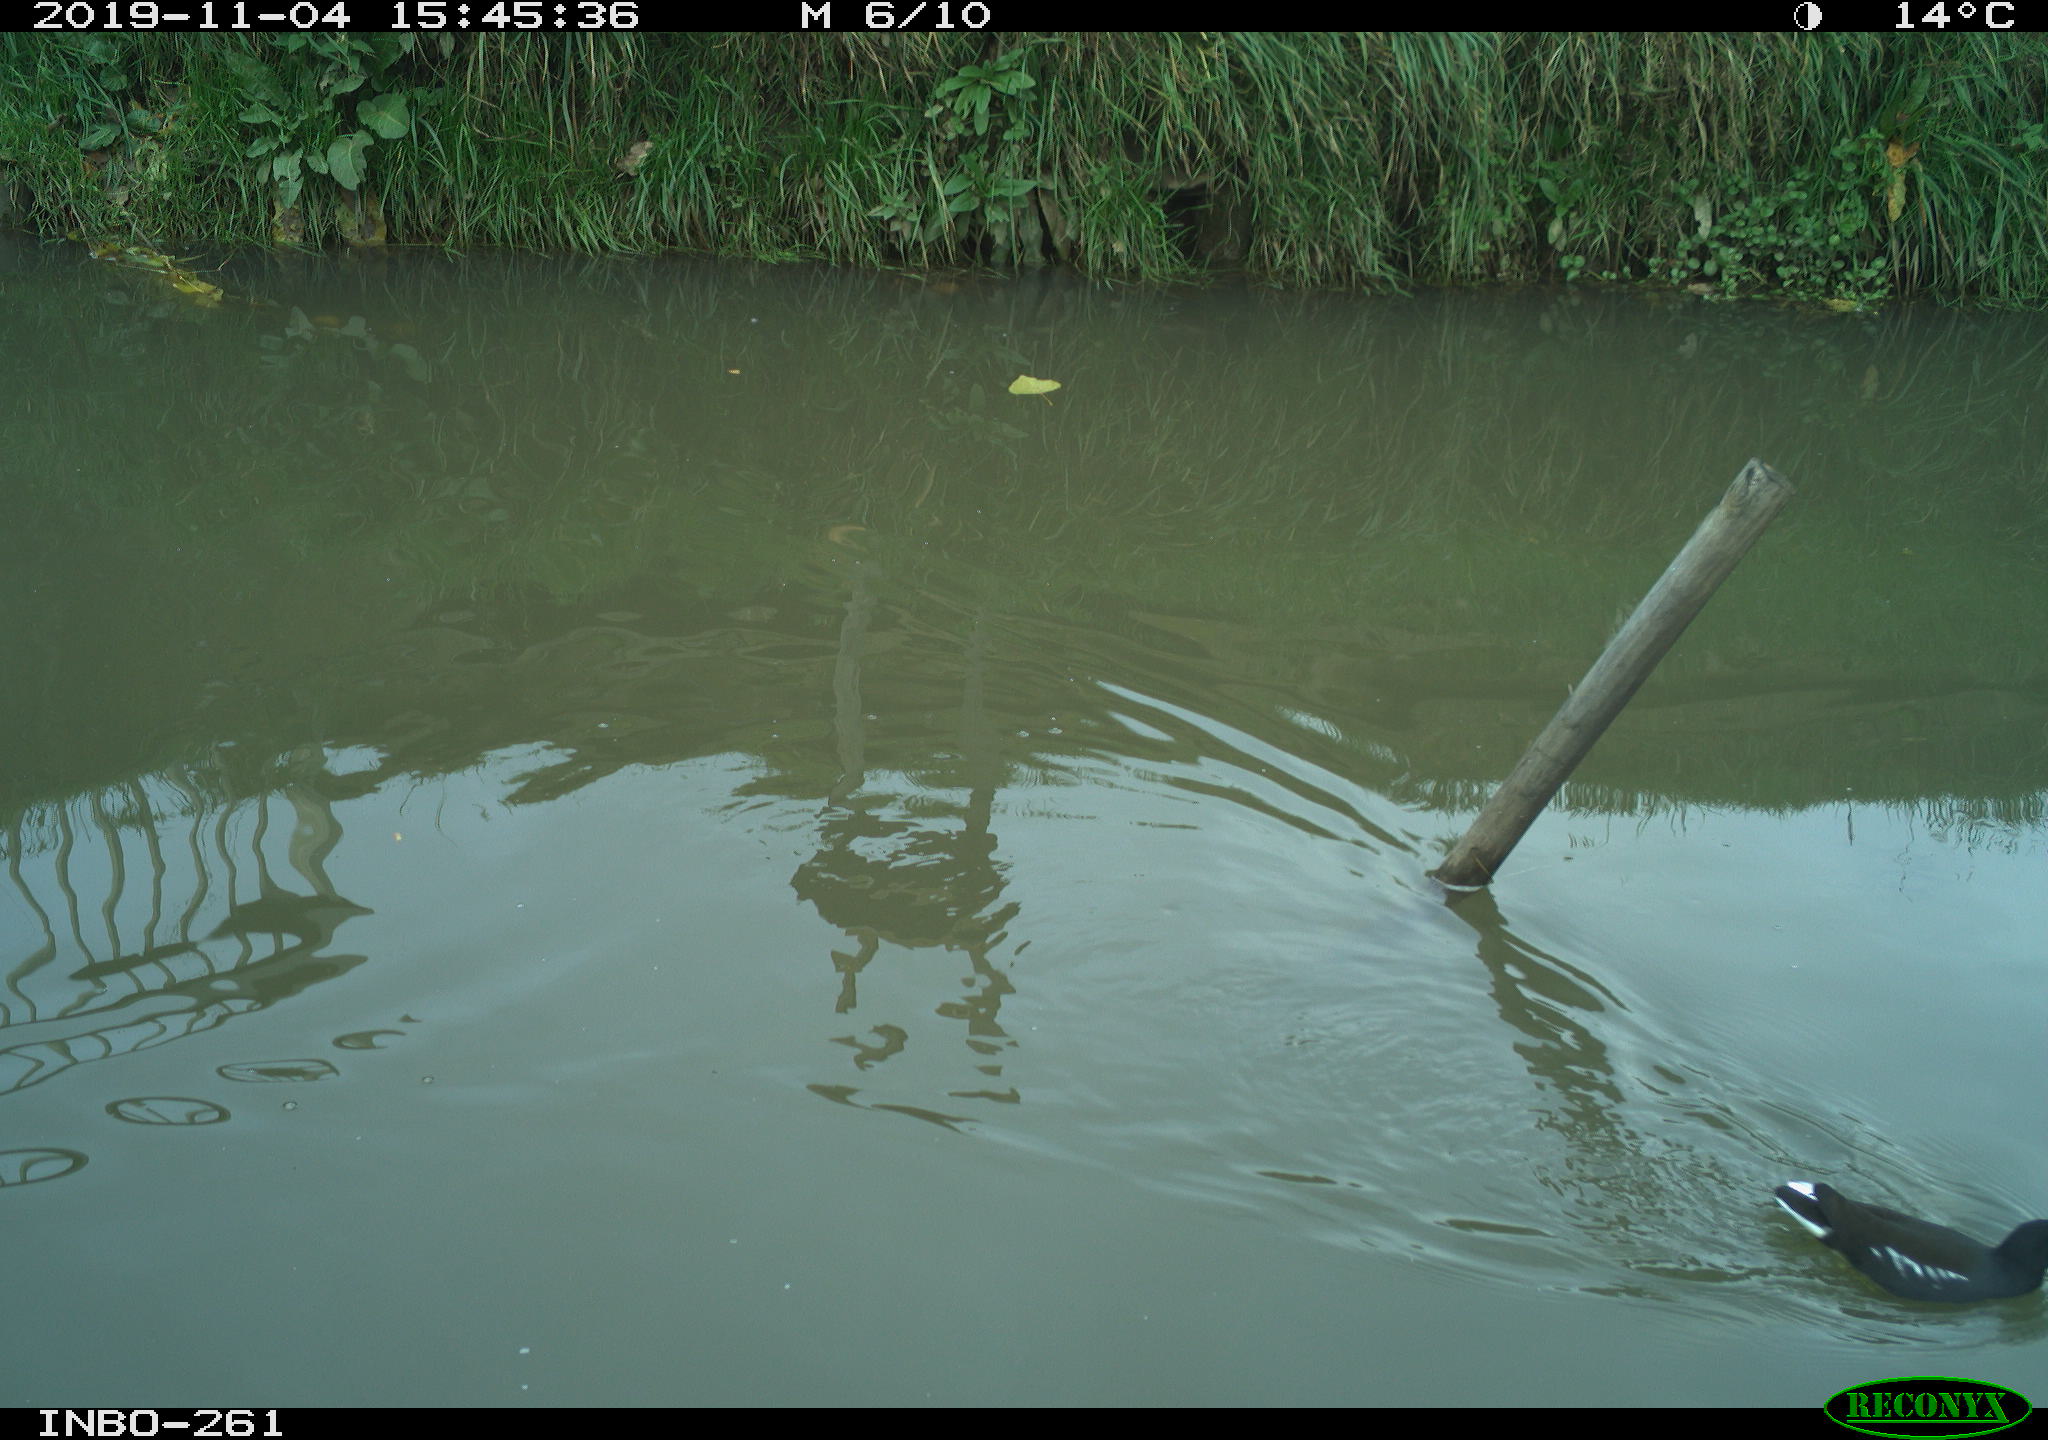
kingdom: Animalia
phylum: Chordata
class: Aves
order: Gruiformes
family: Rallidae
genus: Gallinula
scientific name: Gallinula chloropus
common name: Common moorhen
